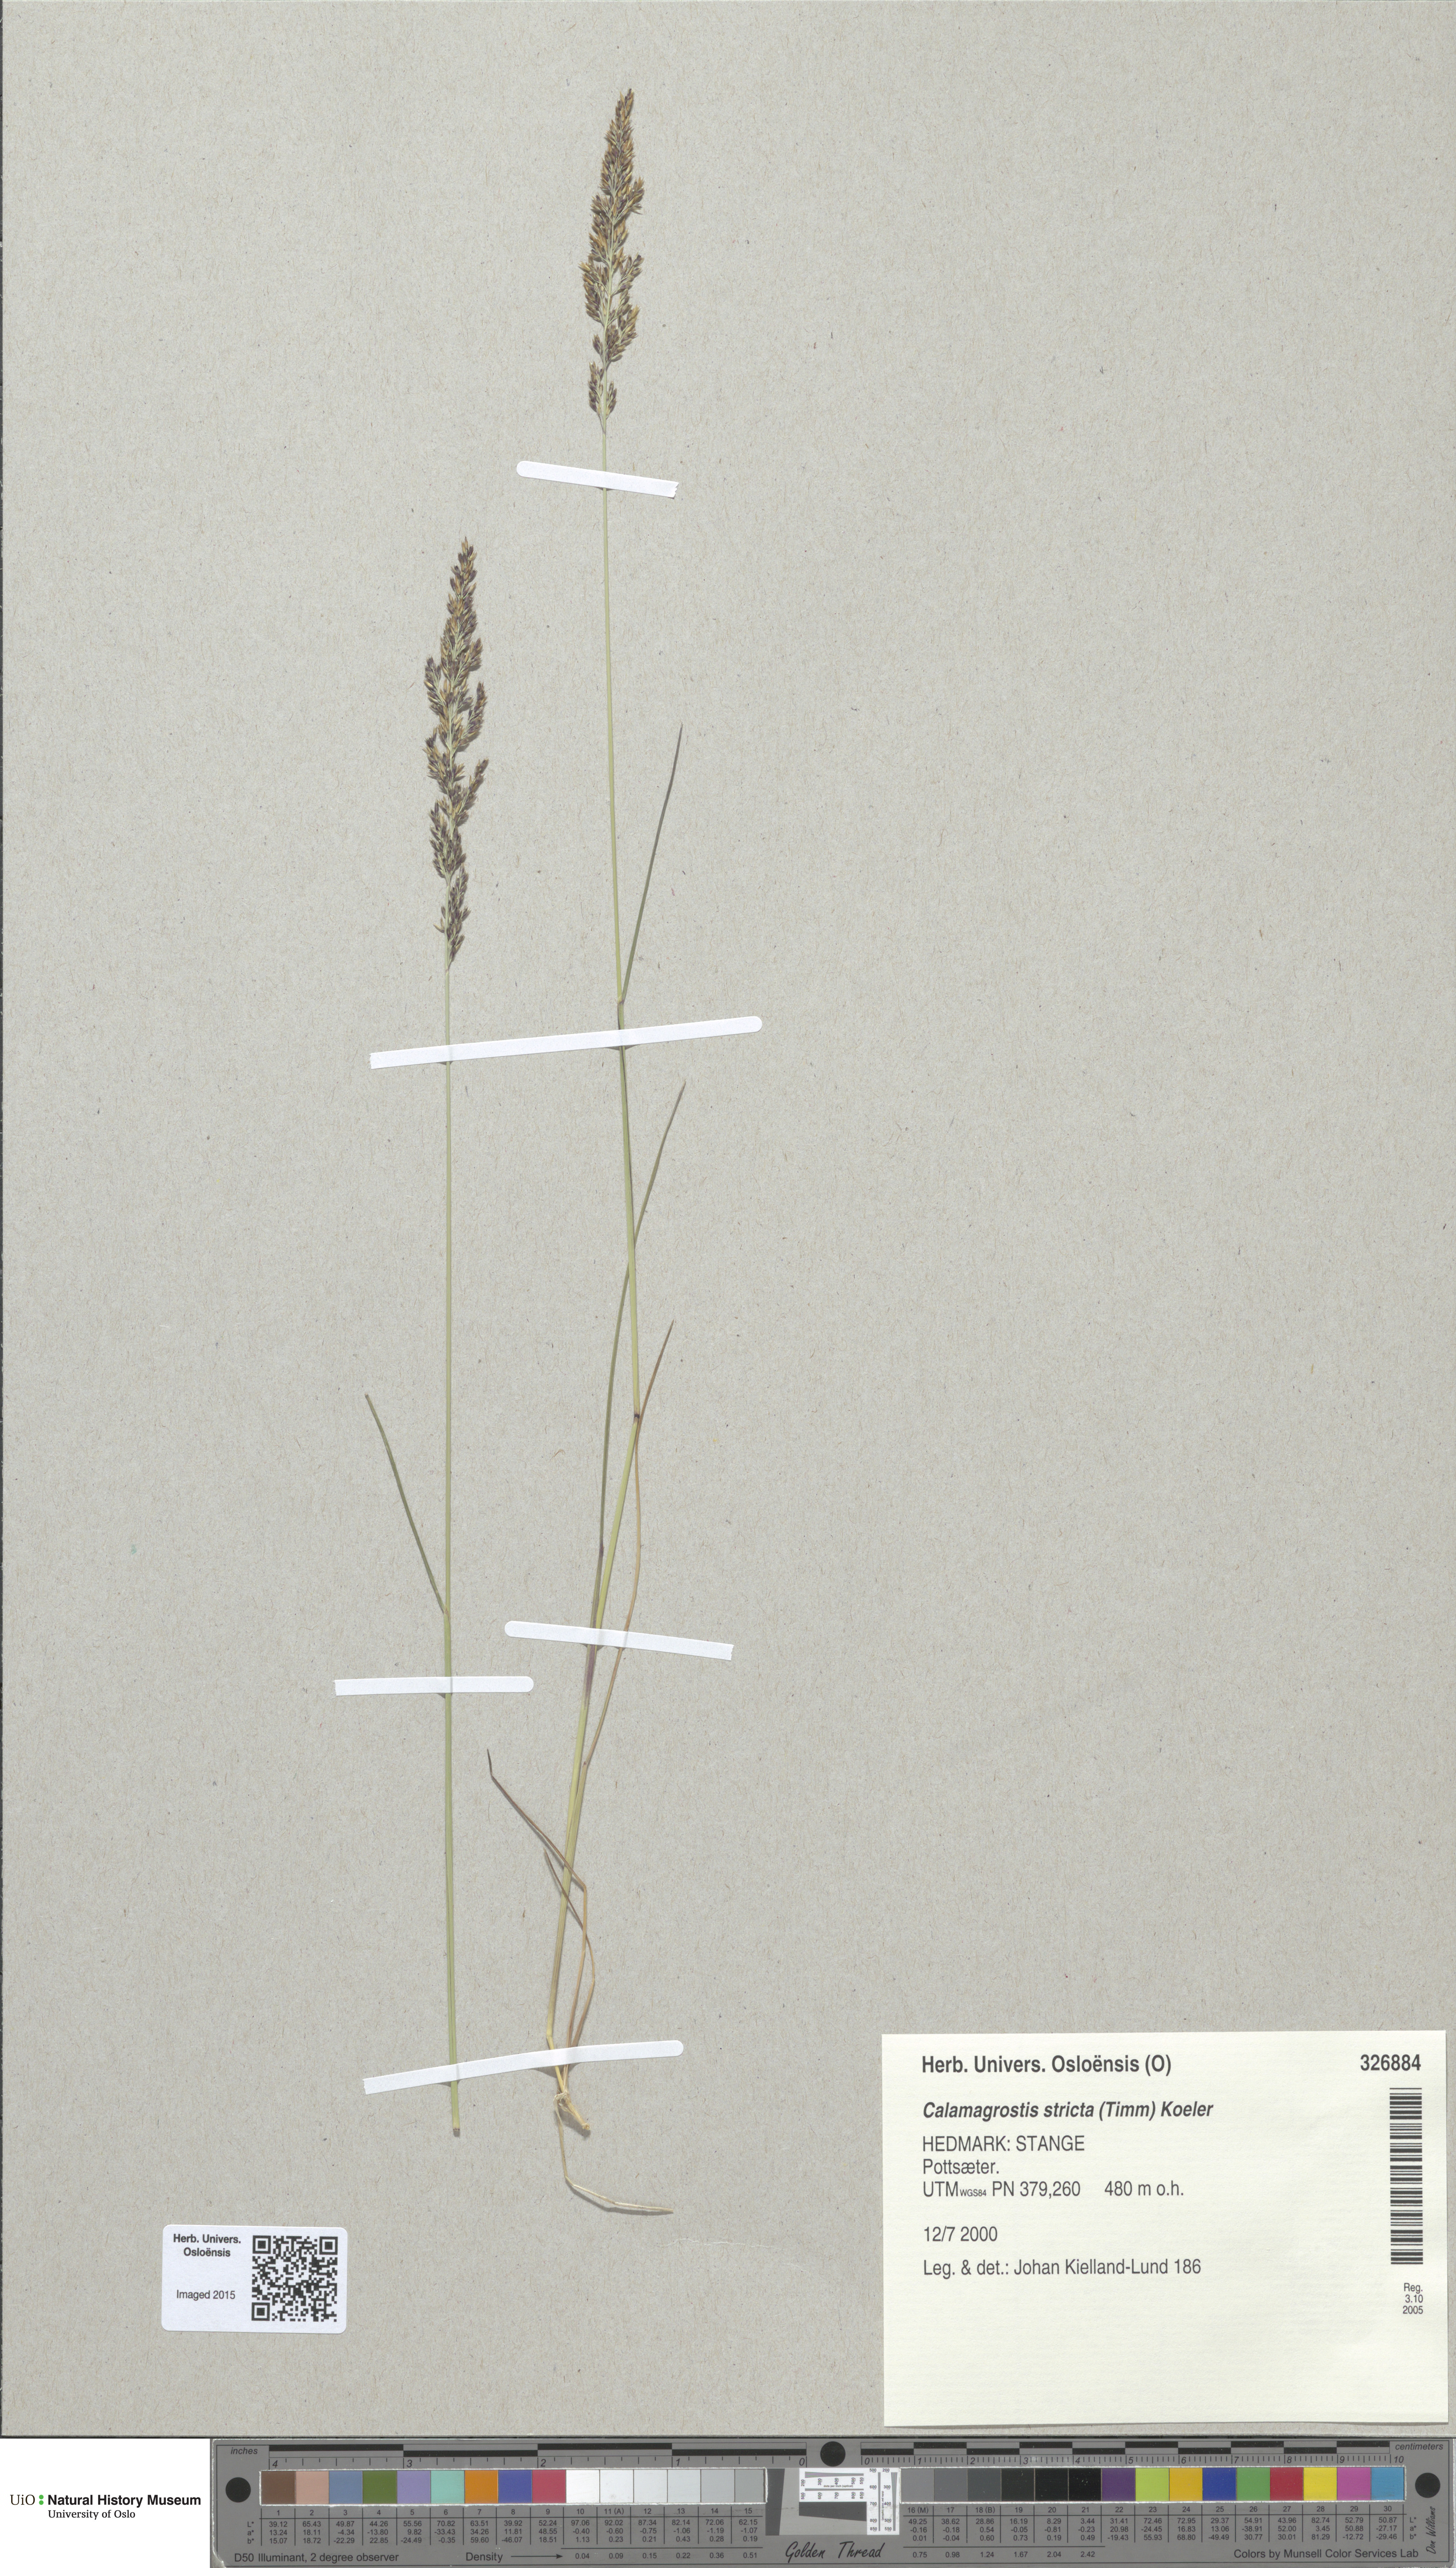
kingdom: Plantae
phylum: Tracheophyta
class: Liliopsida
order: Poales
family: Poaceae
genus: Achnatherum
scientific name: Achnatherum calamagrostis
